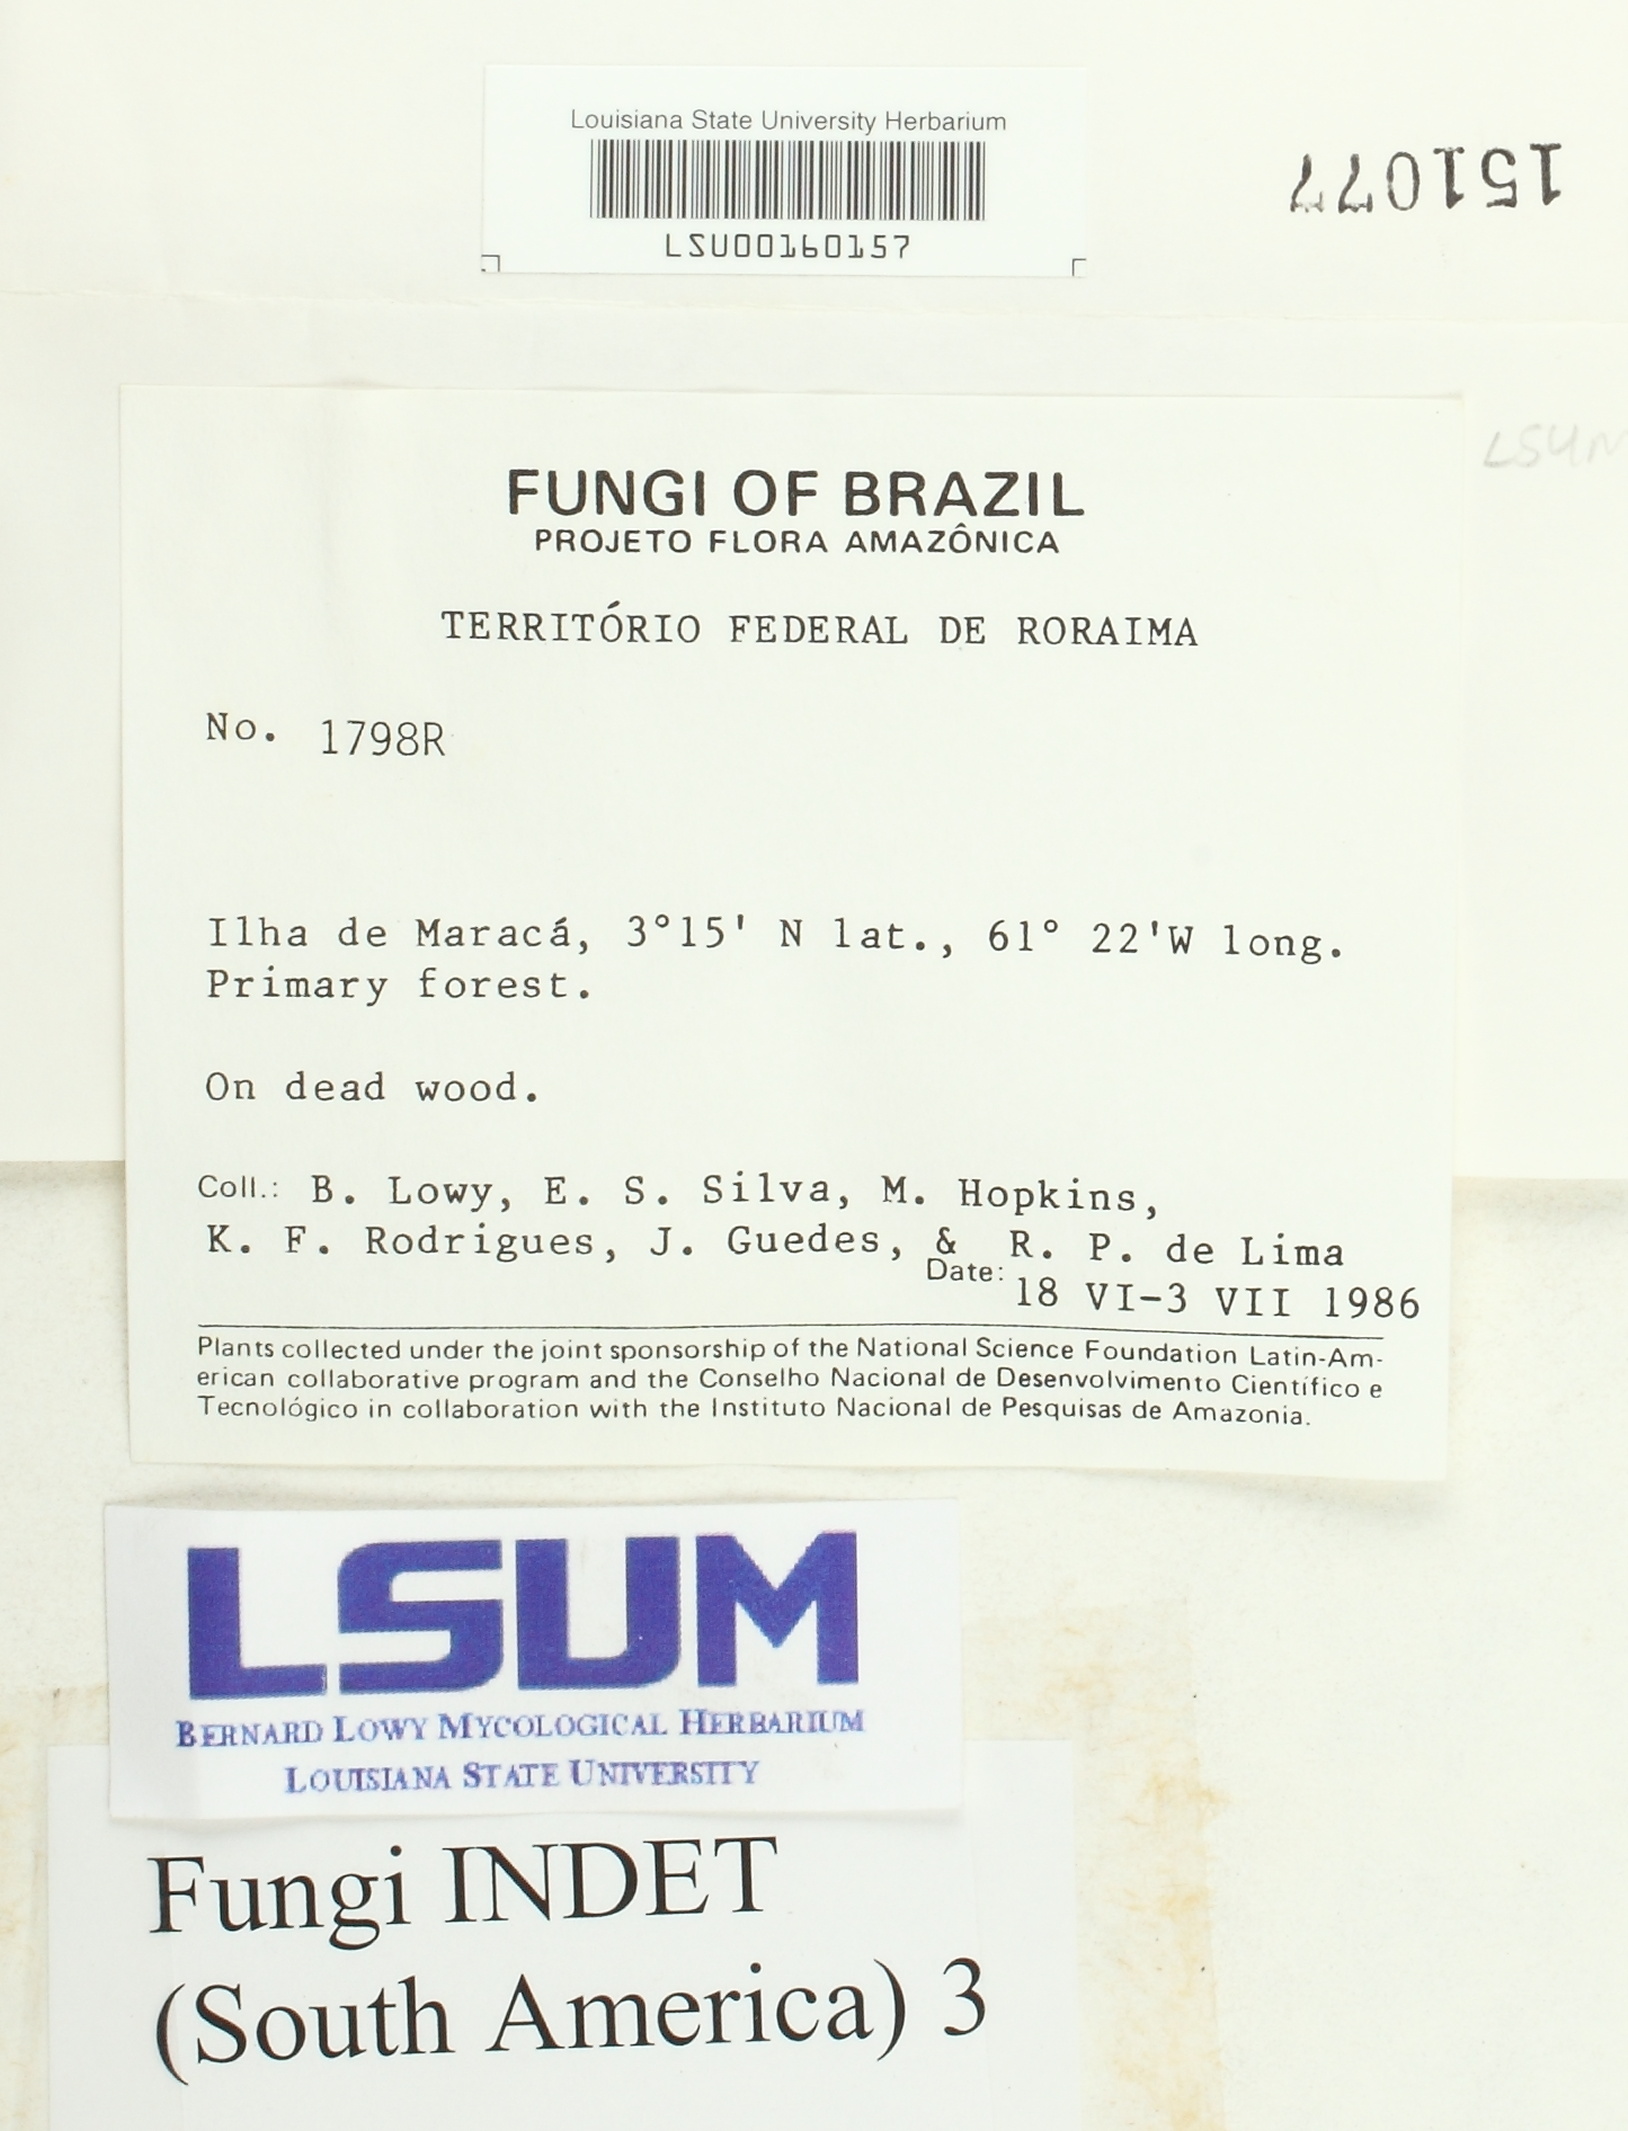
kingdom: Fungi
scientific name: Fungi
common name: Fungi
